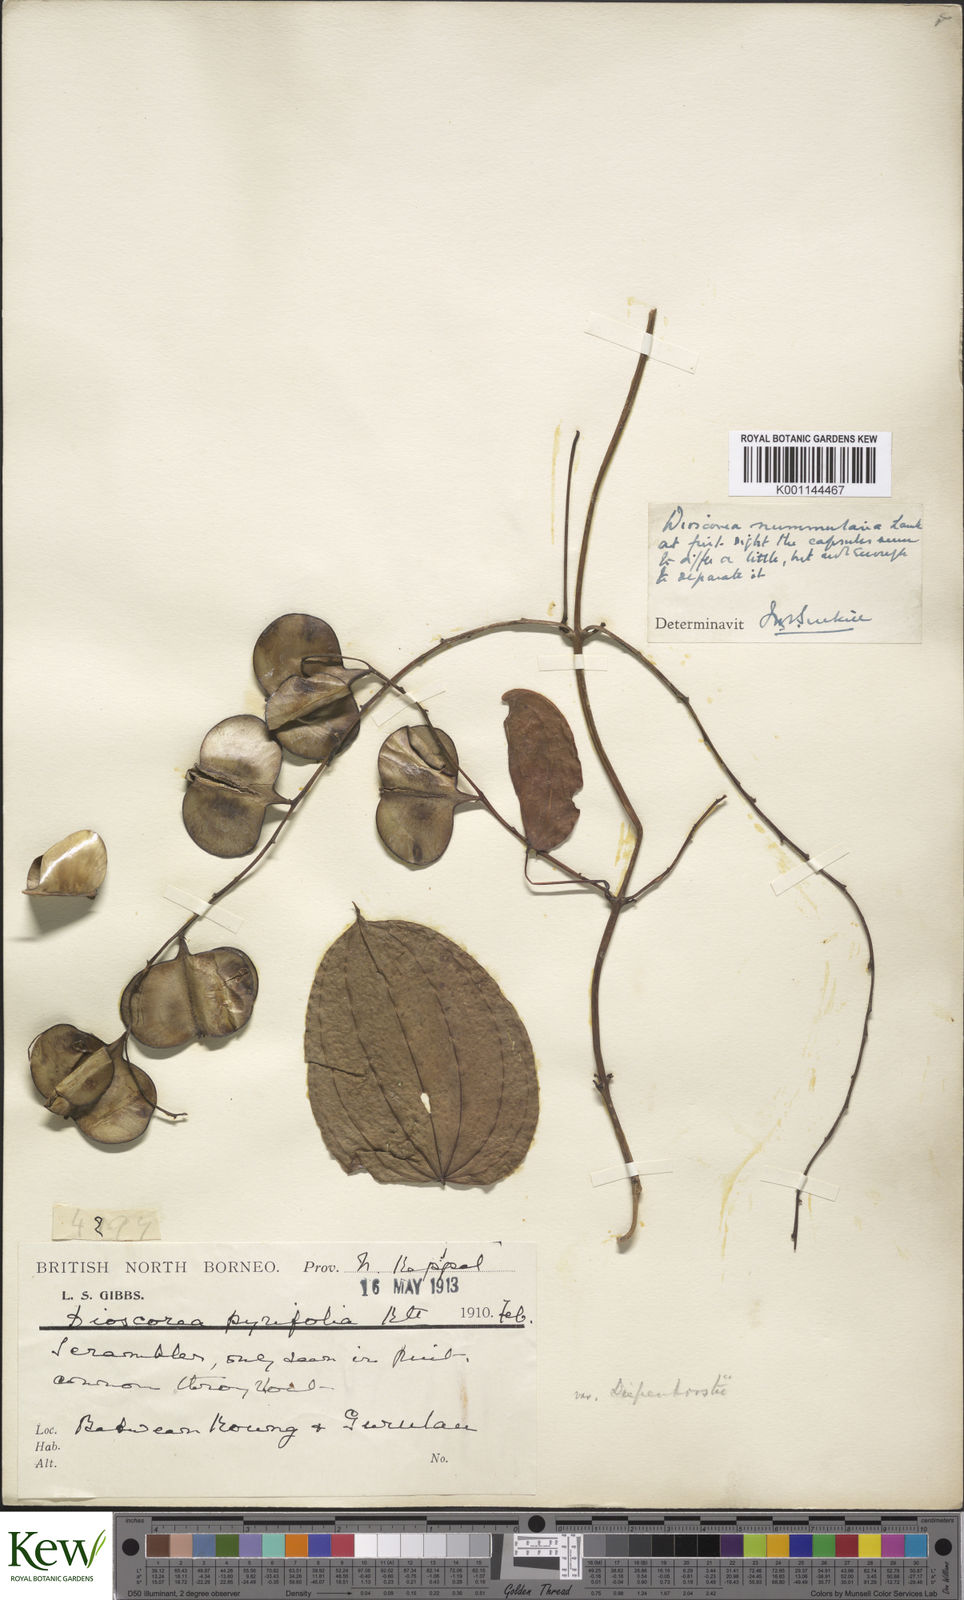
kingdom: Plantae
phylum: Tracheophyta
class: Liliopsida
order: Dioscoreales
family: Dioscoreaceae
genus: Dioscorea
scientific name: Dioscorea nummularia
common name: Pacific yam
